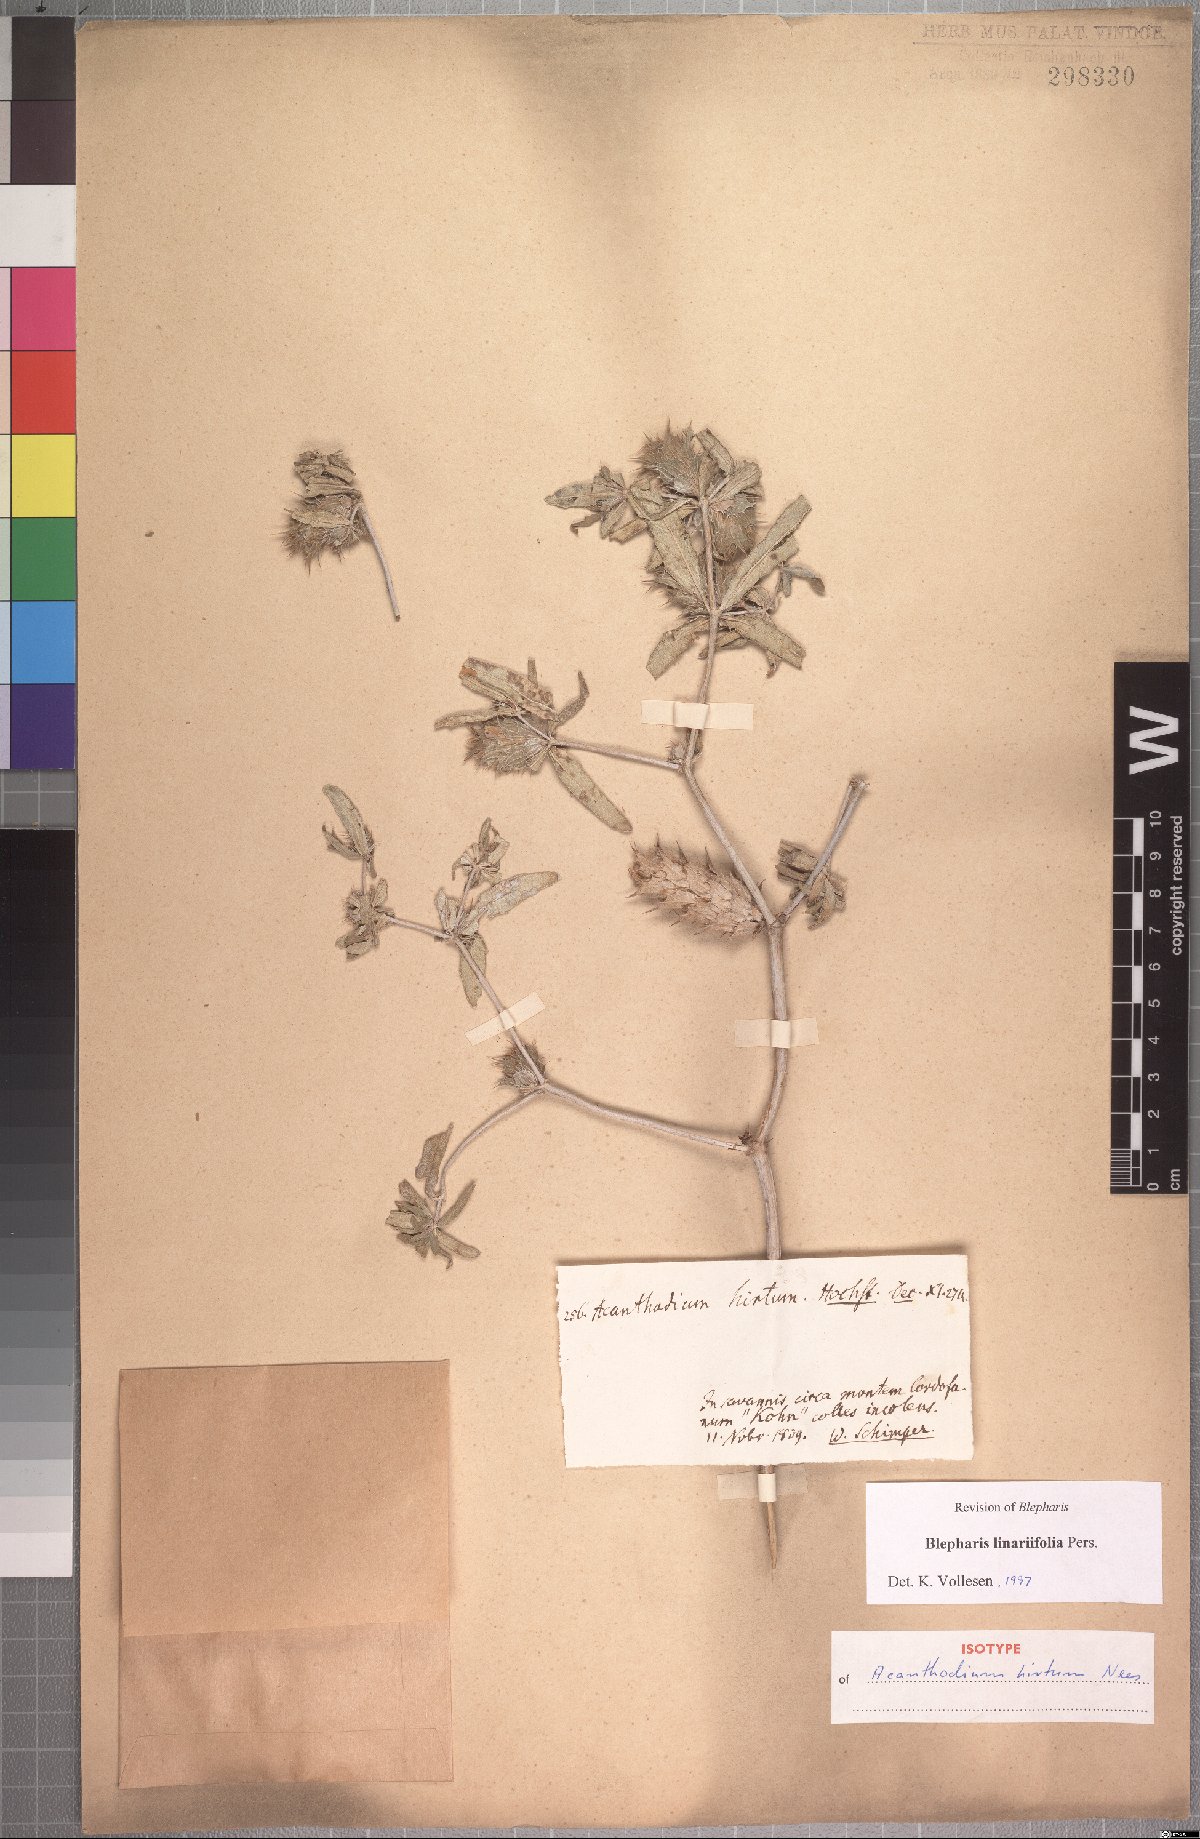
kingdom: Plantae
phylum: Tracheophyta
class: Magnoliopsida
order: Lamiales
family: Acanthaceae
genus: Blepharis
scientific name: Blepharis linariifolia
